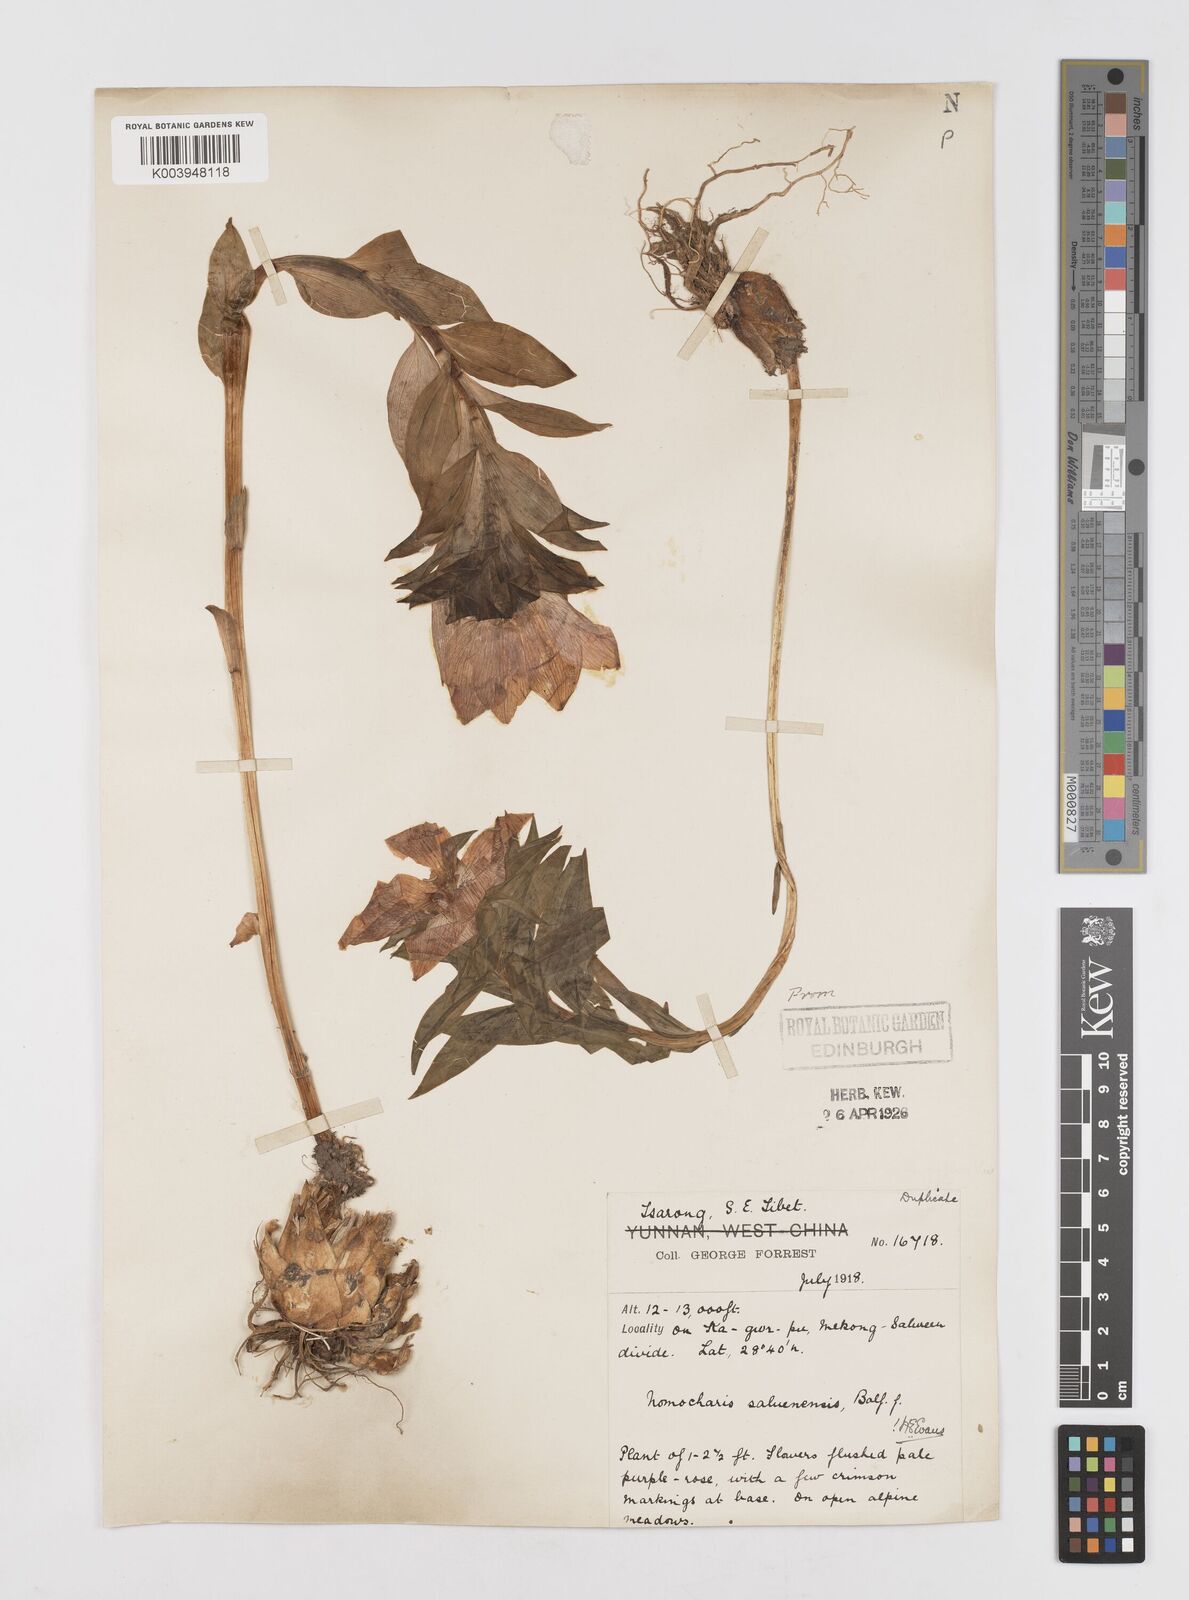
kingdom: Plantae
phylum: Tracheophyta
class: Liliopsida
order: Liliales
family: Liliaceae
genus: Lilium
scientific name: Lilium saluenense
